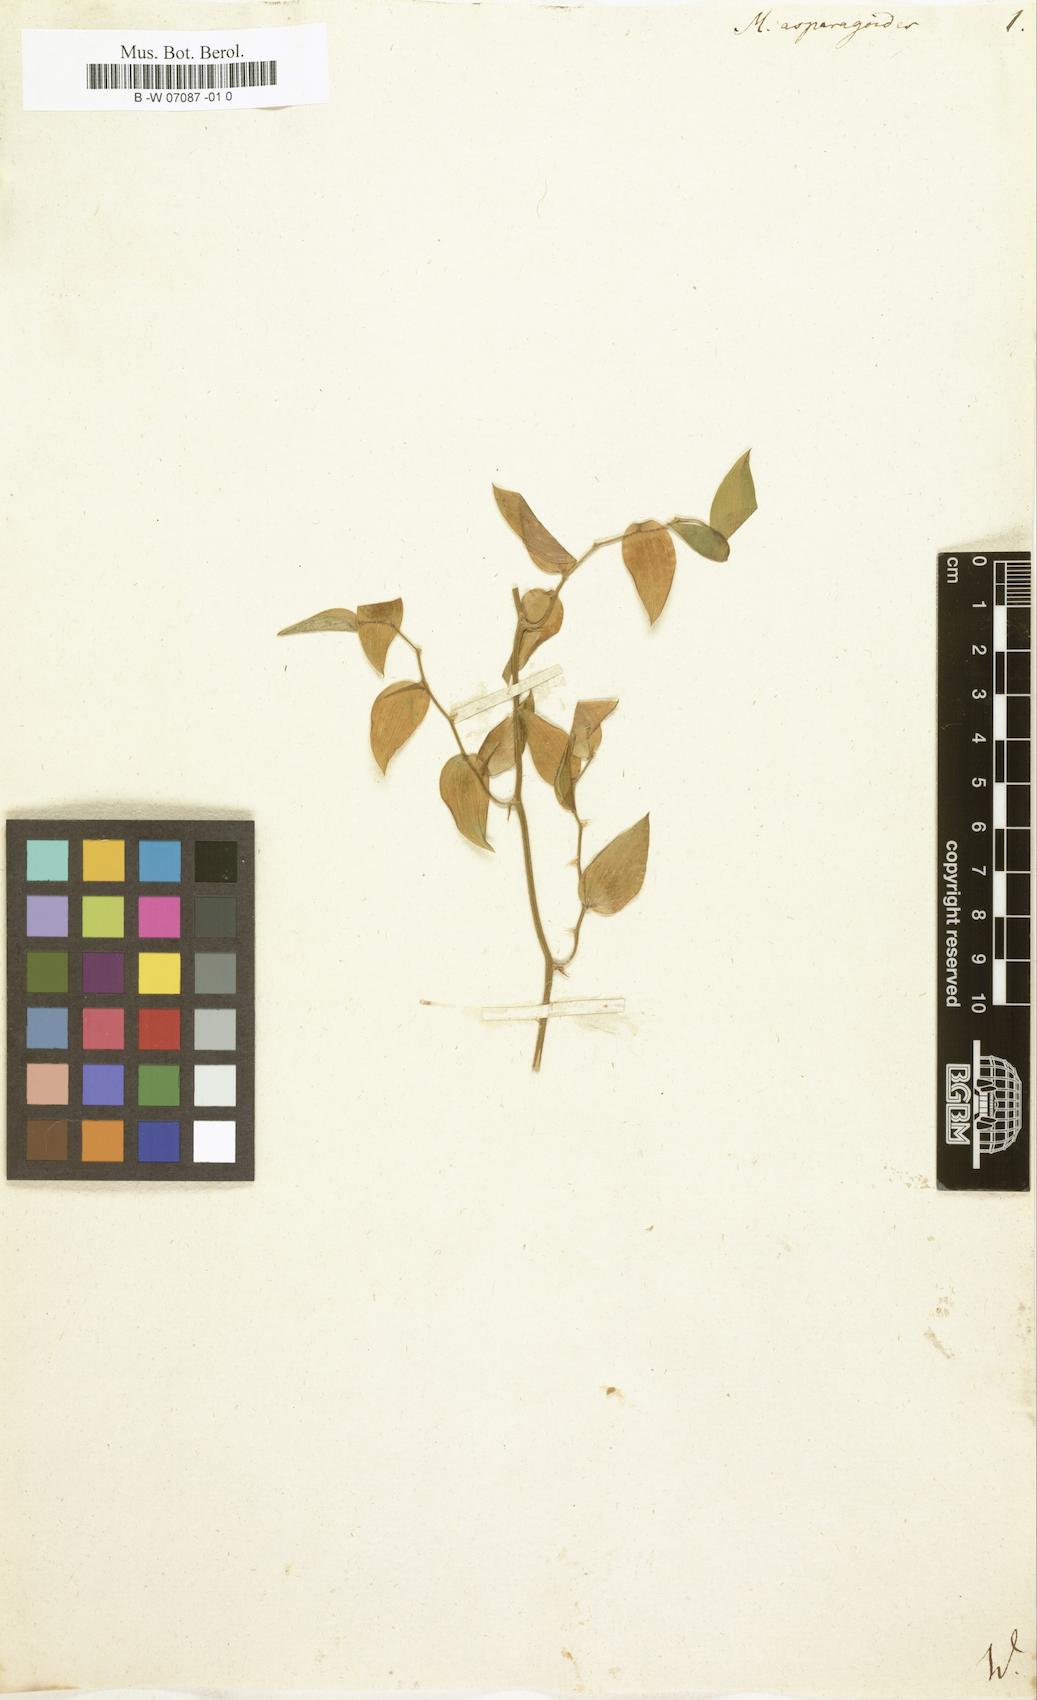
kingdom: Plantae
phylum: Tracheophyta
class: Liliopsida
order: Asparagales
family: Asparagaceae
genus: Asparagus
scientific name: Asparagus asparagoides
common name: African asparagus fern
